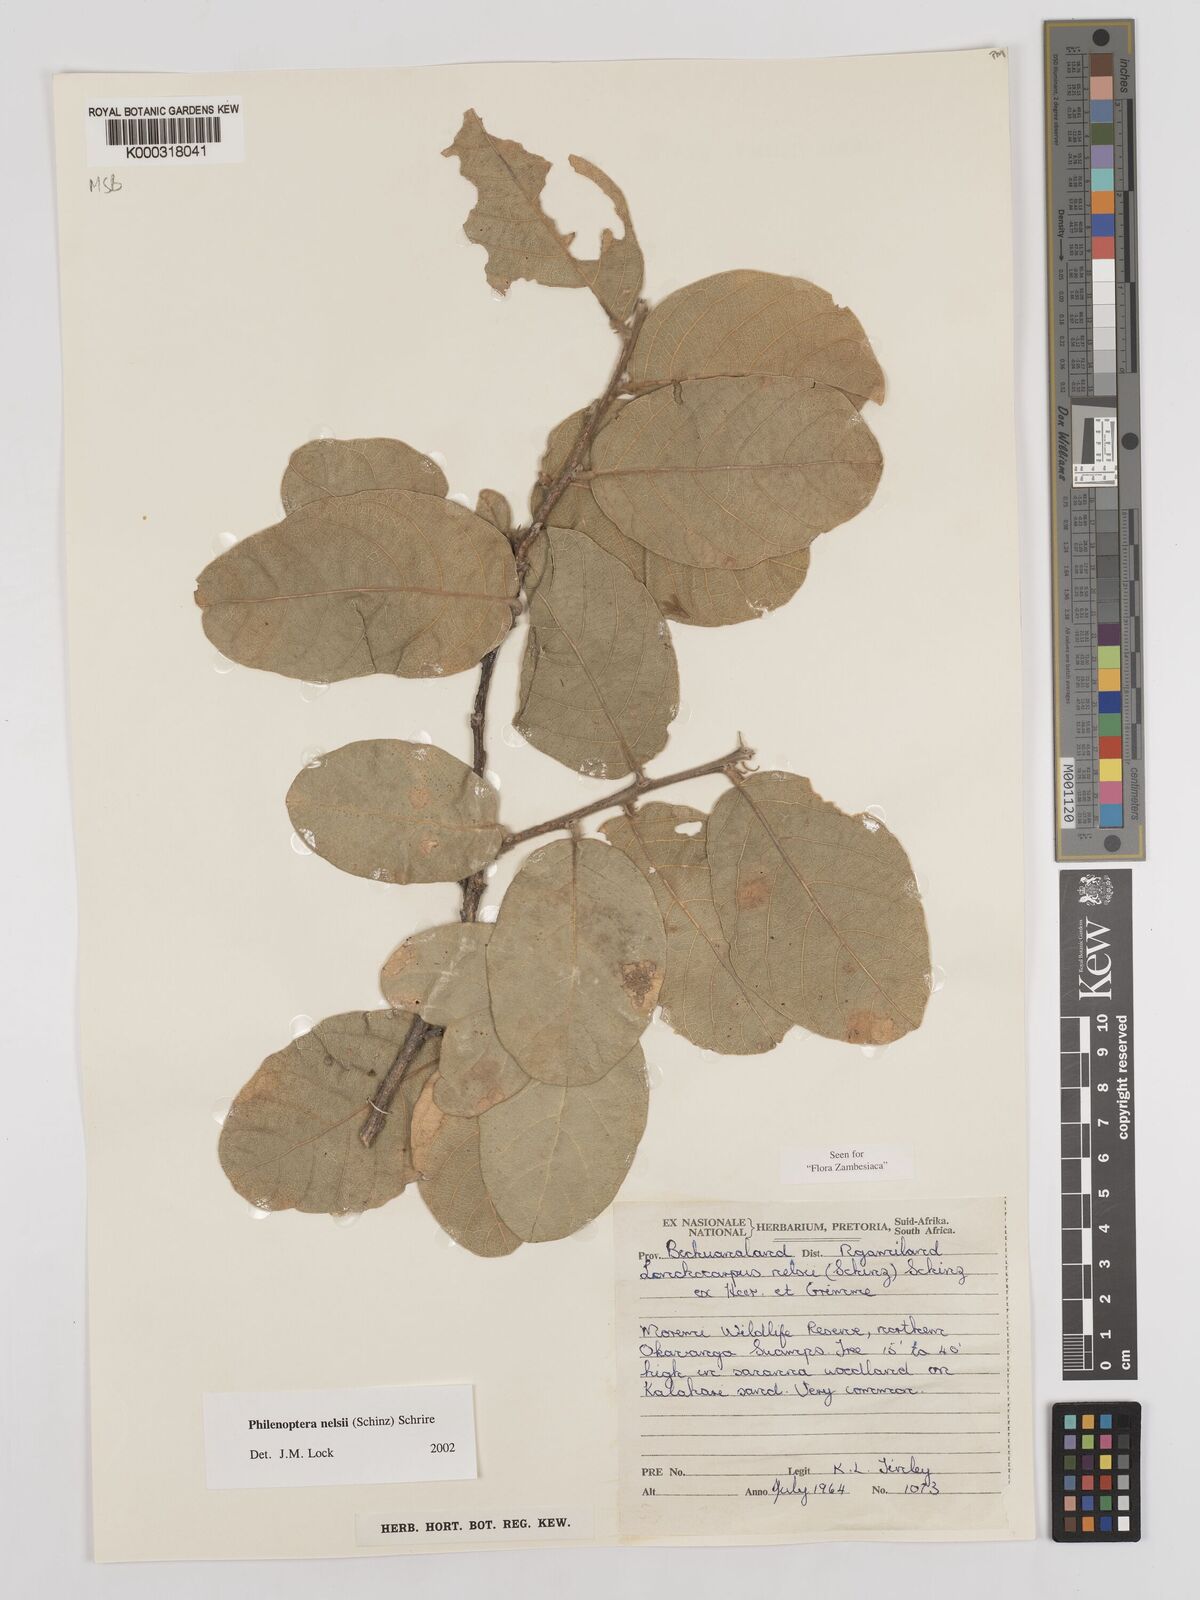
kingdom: Plantae
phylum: Tracheophyta
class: Magnoliopsida
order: Fabales
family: Fabaceae
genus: Philenoptera
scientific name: Philenoptera nelsii
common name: Kalahari apple-leaf
